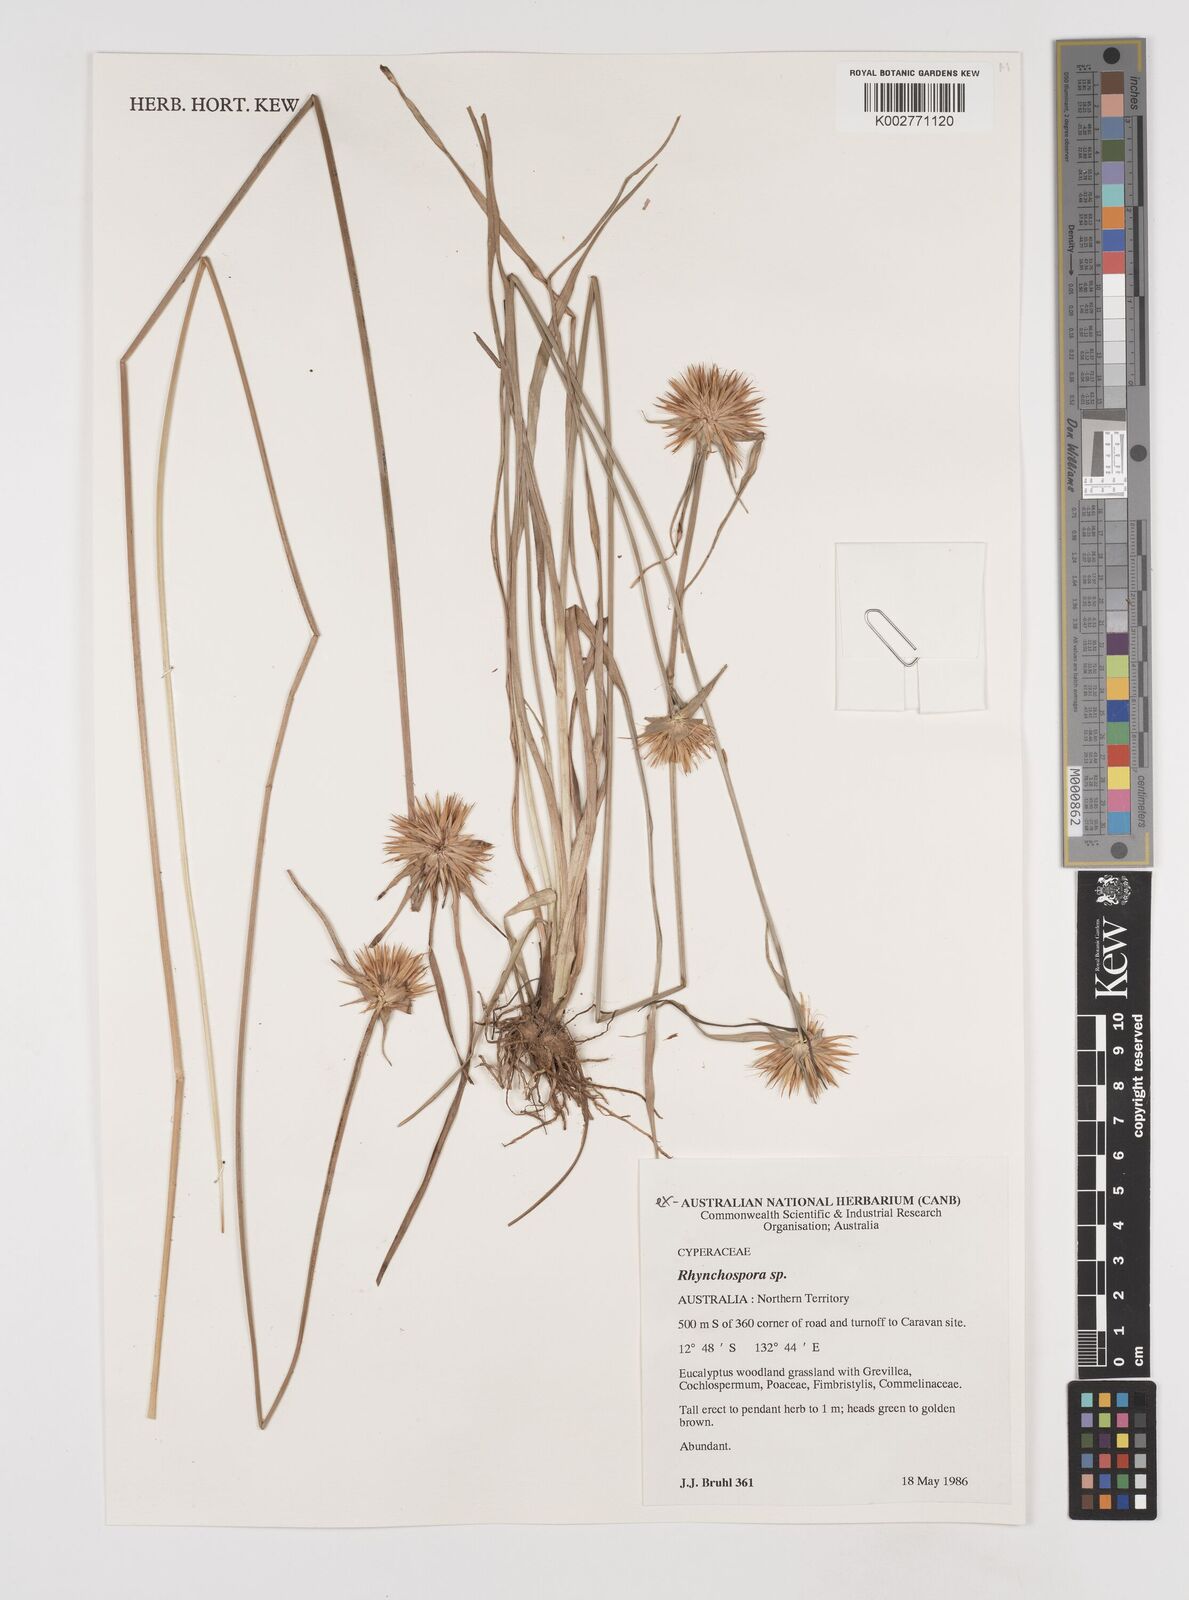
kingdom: Plantae
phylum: Tracheophyta
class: Liliopsida
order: Poales
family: Cyperaceae
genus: Rhynchospora
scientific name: Rhynchospora
